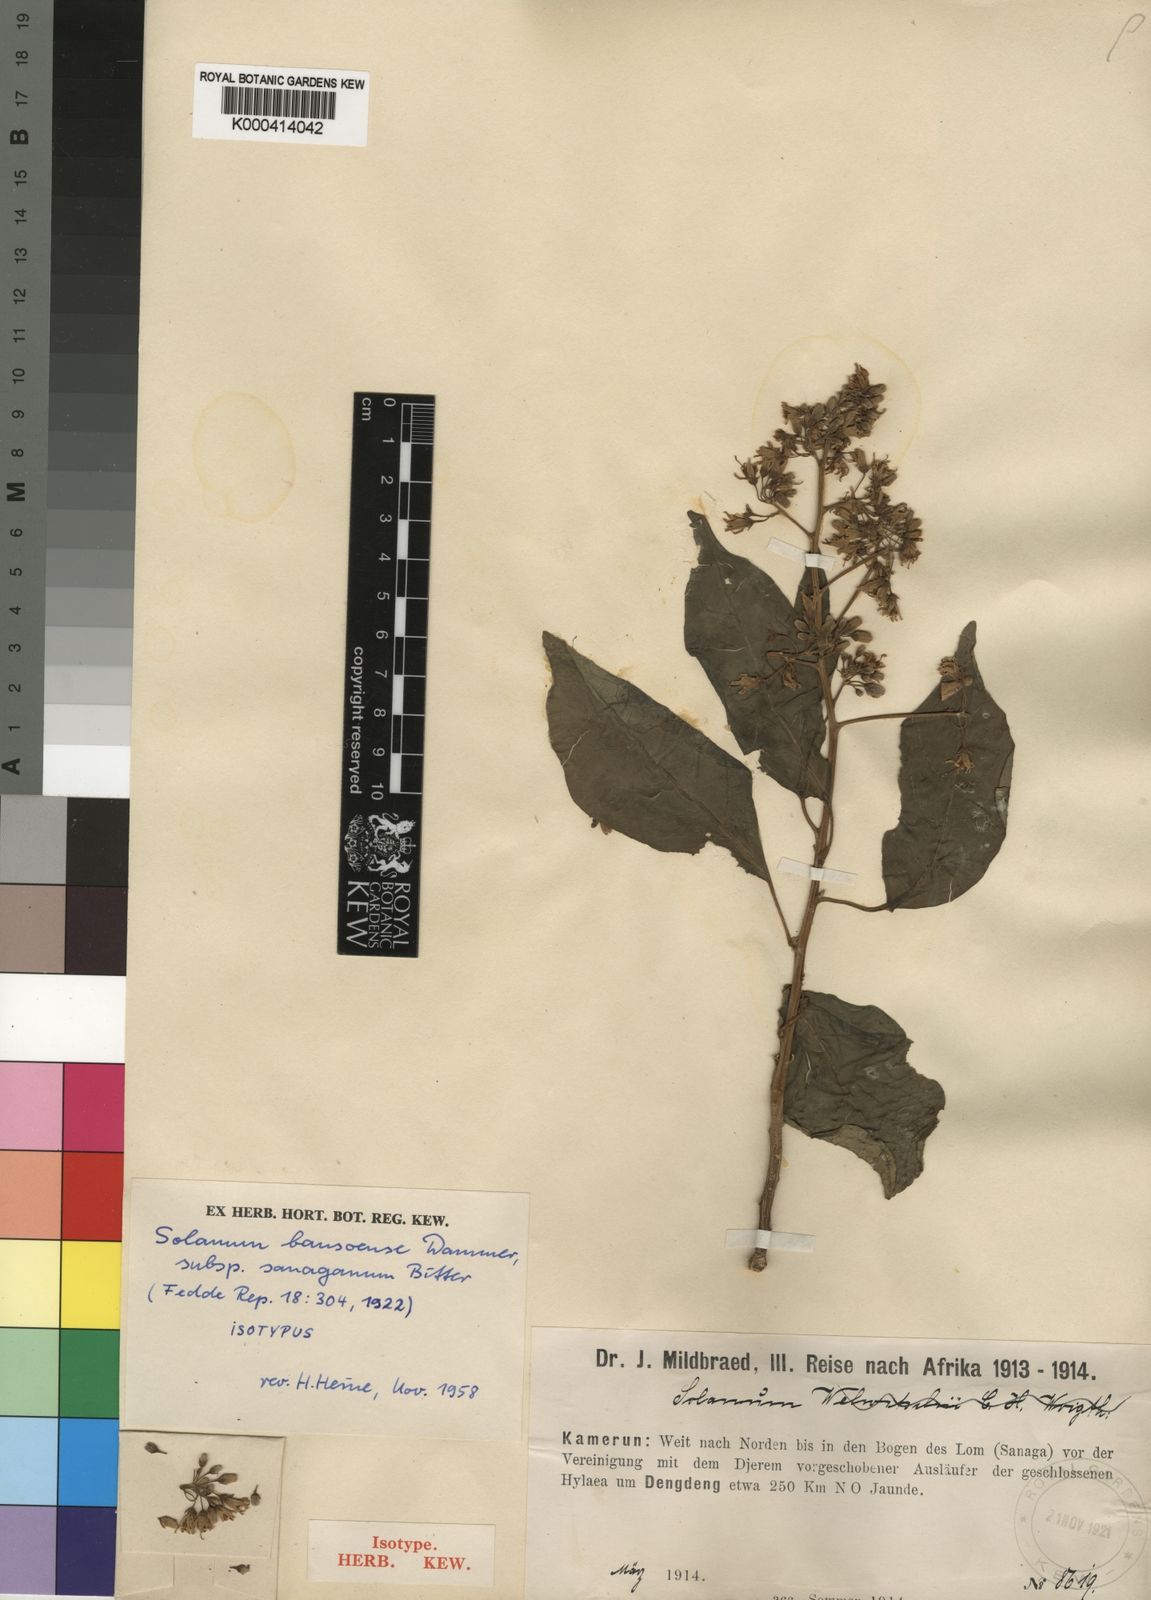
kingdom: Plantae
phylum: Tracheophyta
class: Magnoliopsida
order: Solanales
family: Solanaceae
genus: Solanum
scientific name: Solanum terminale
